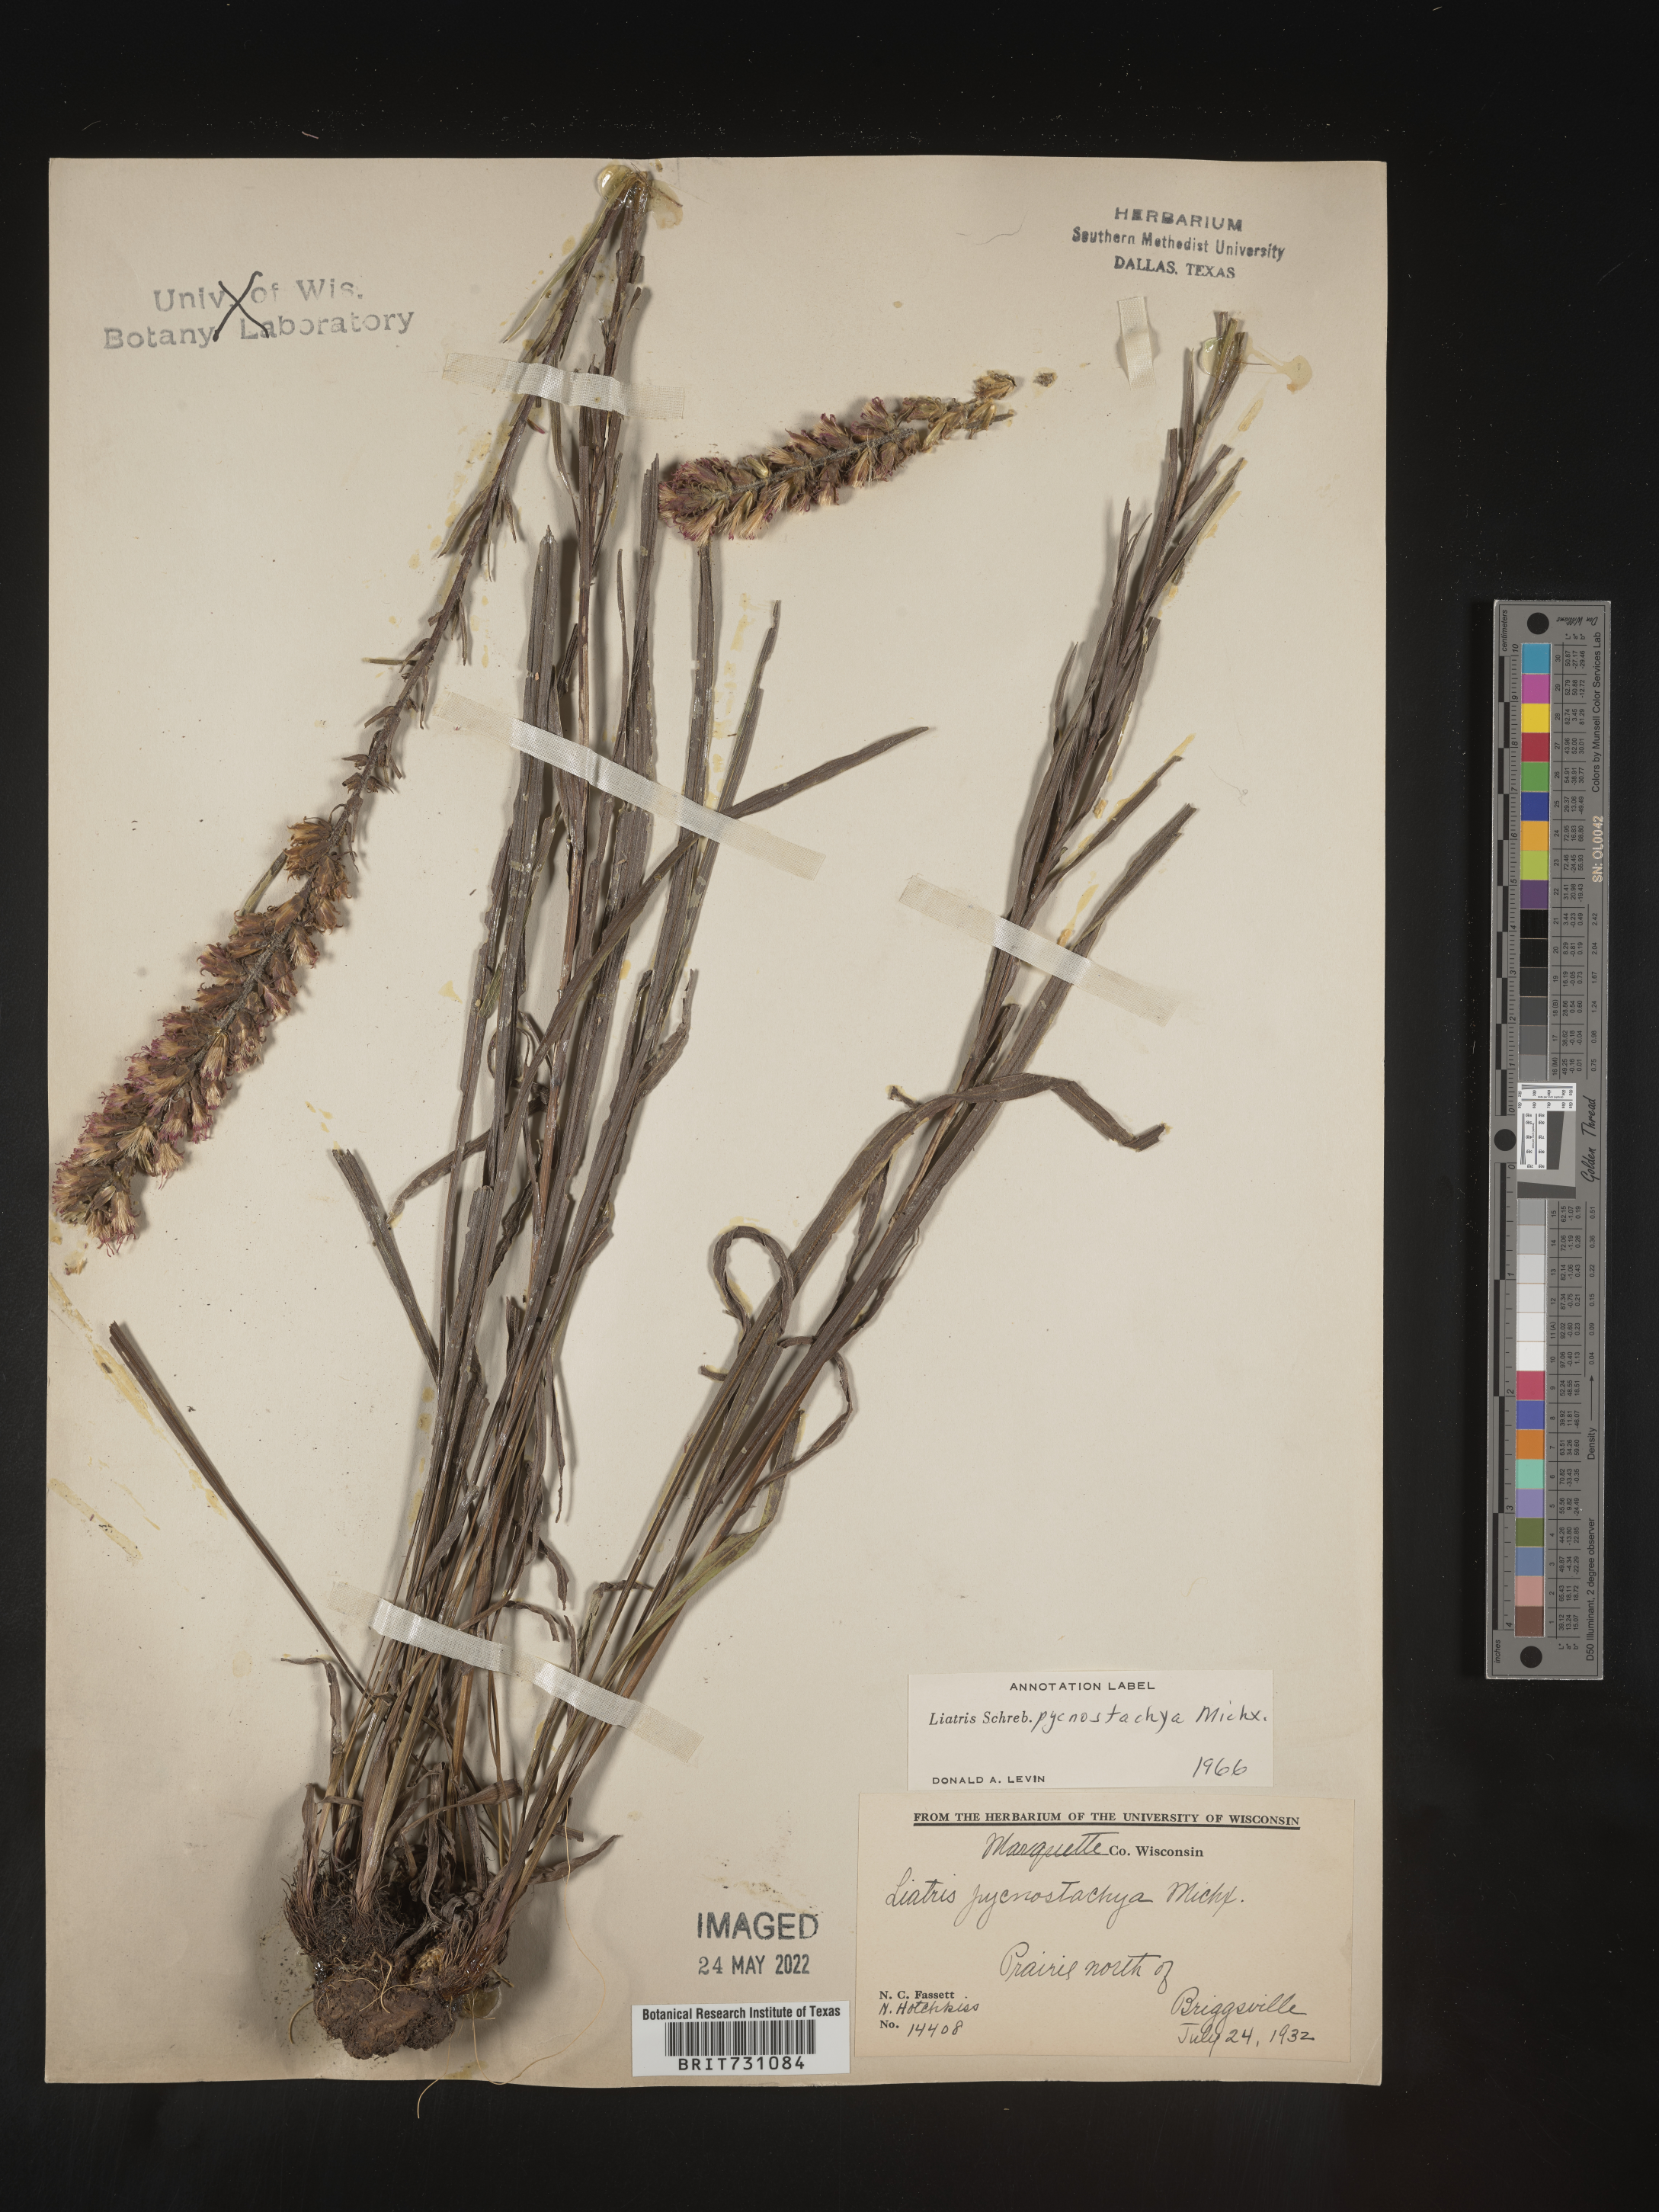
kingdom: Plantae
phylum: Tracheophyta
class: Magnoliopsida
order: Asterales
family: Asteraceae
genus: Liatris
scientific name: Liatris pycnostachya
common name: Cattail gayfeather
